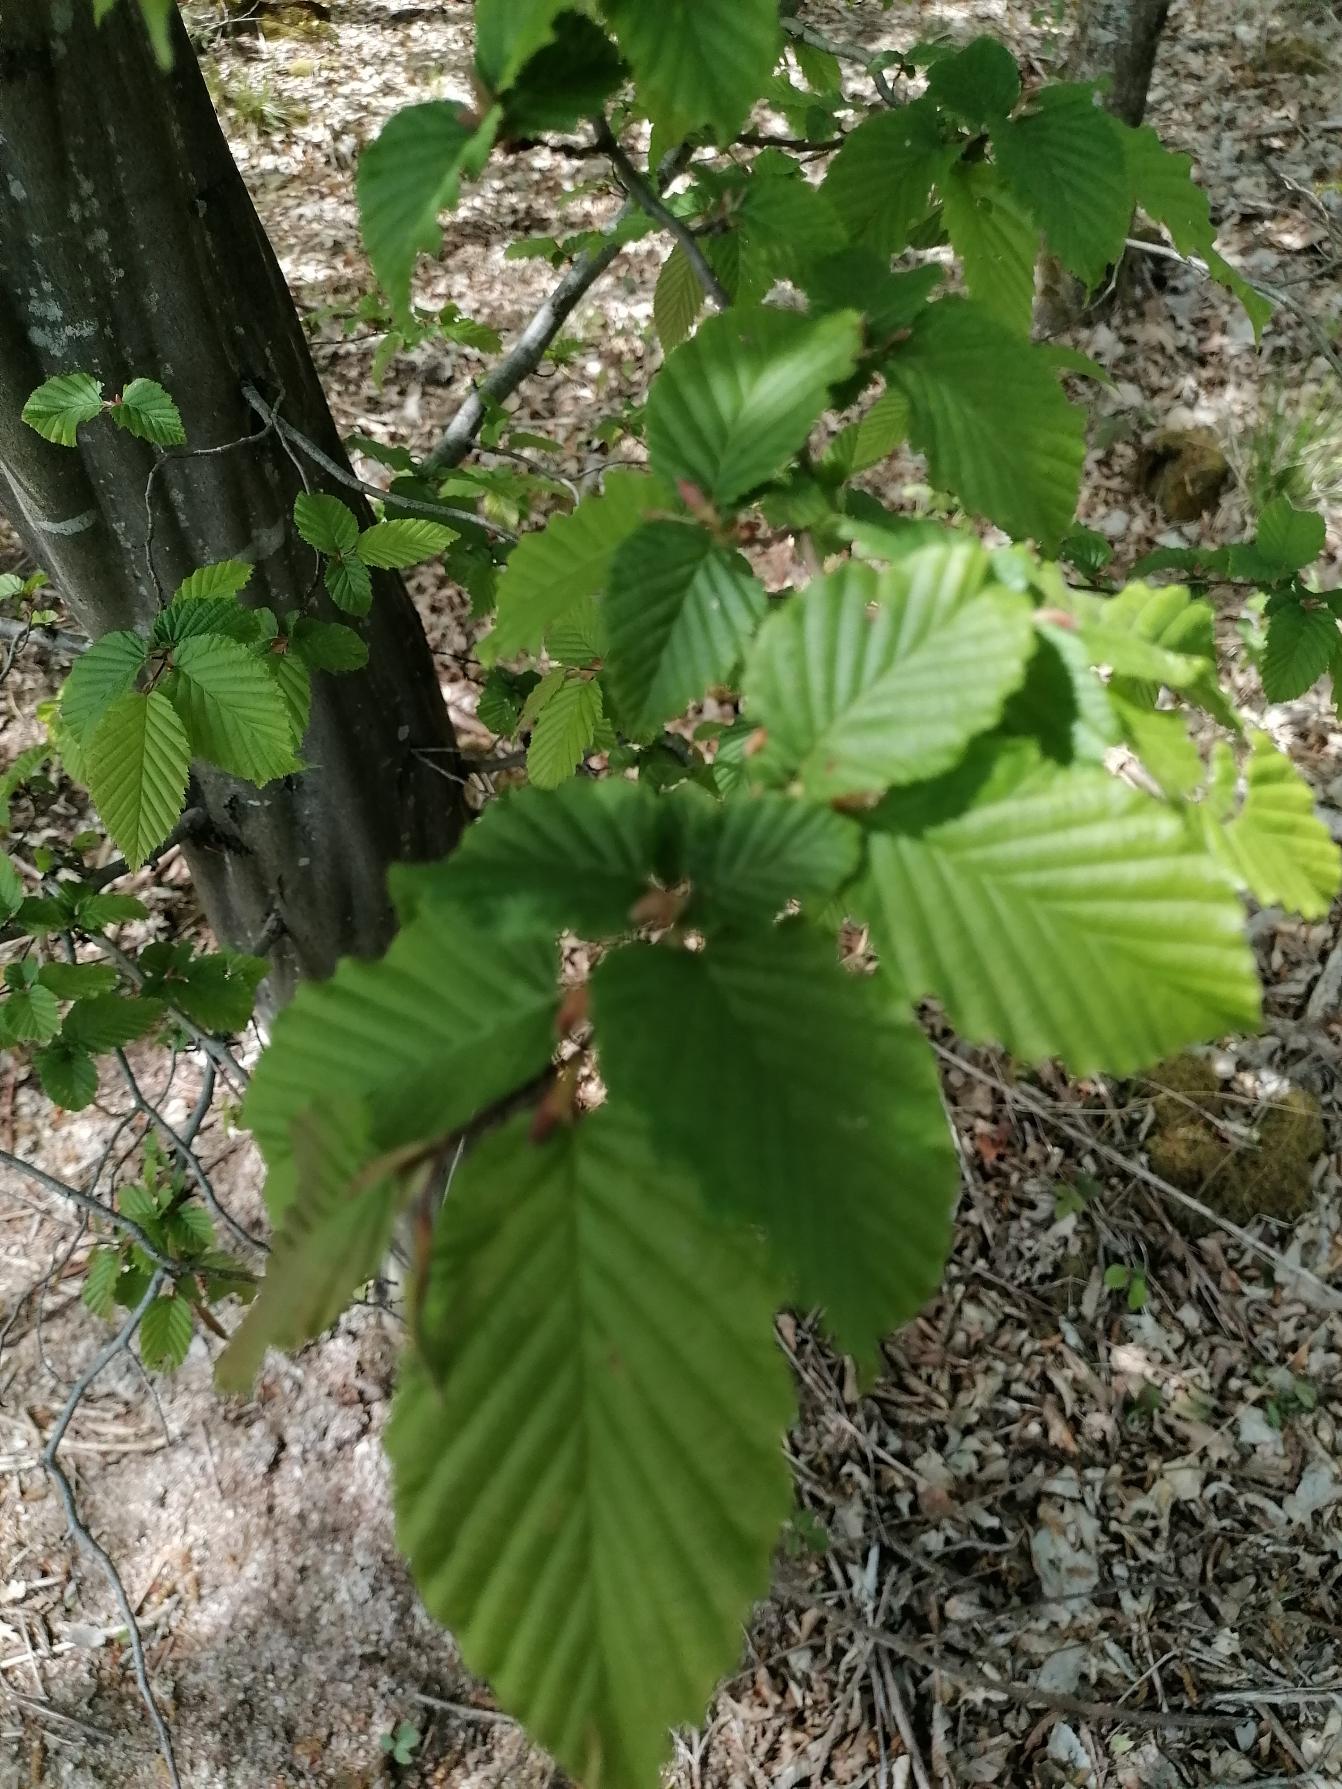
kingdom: Plantae
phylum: Tracheophyta
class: Magnoliopsida
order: Fagales
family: Betulaceae
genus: Carpinus
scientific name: Carpinus betulus
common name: Avnbøg
